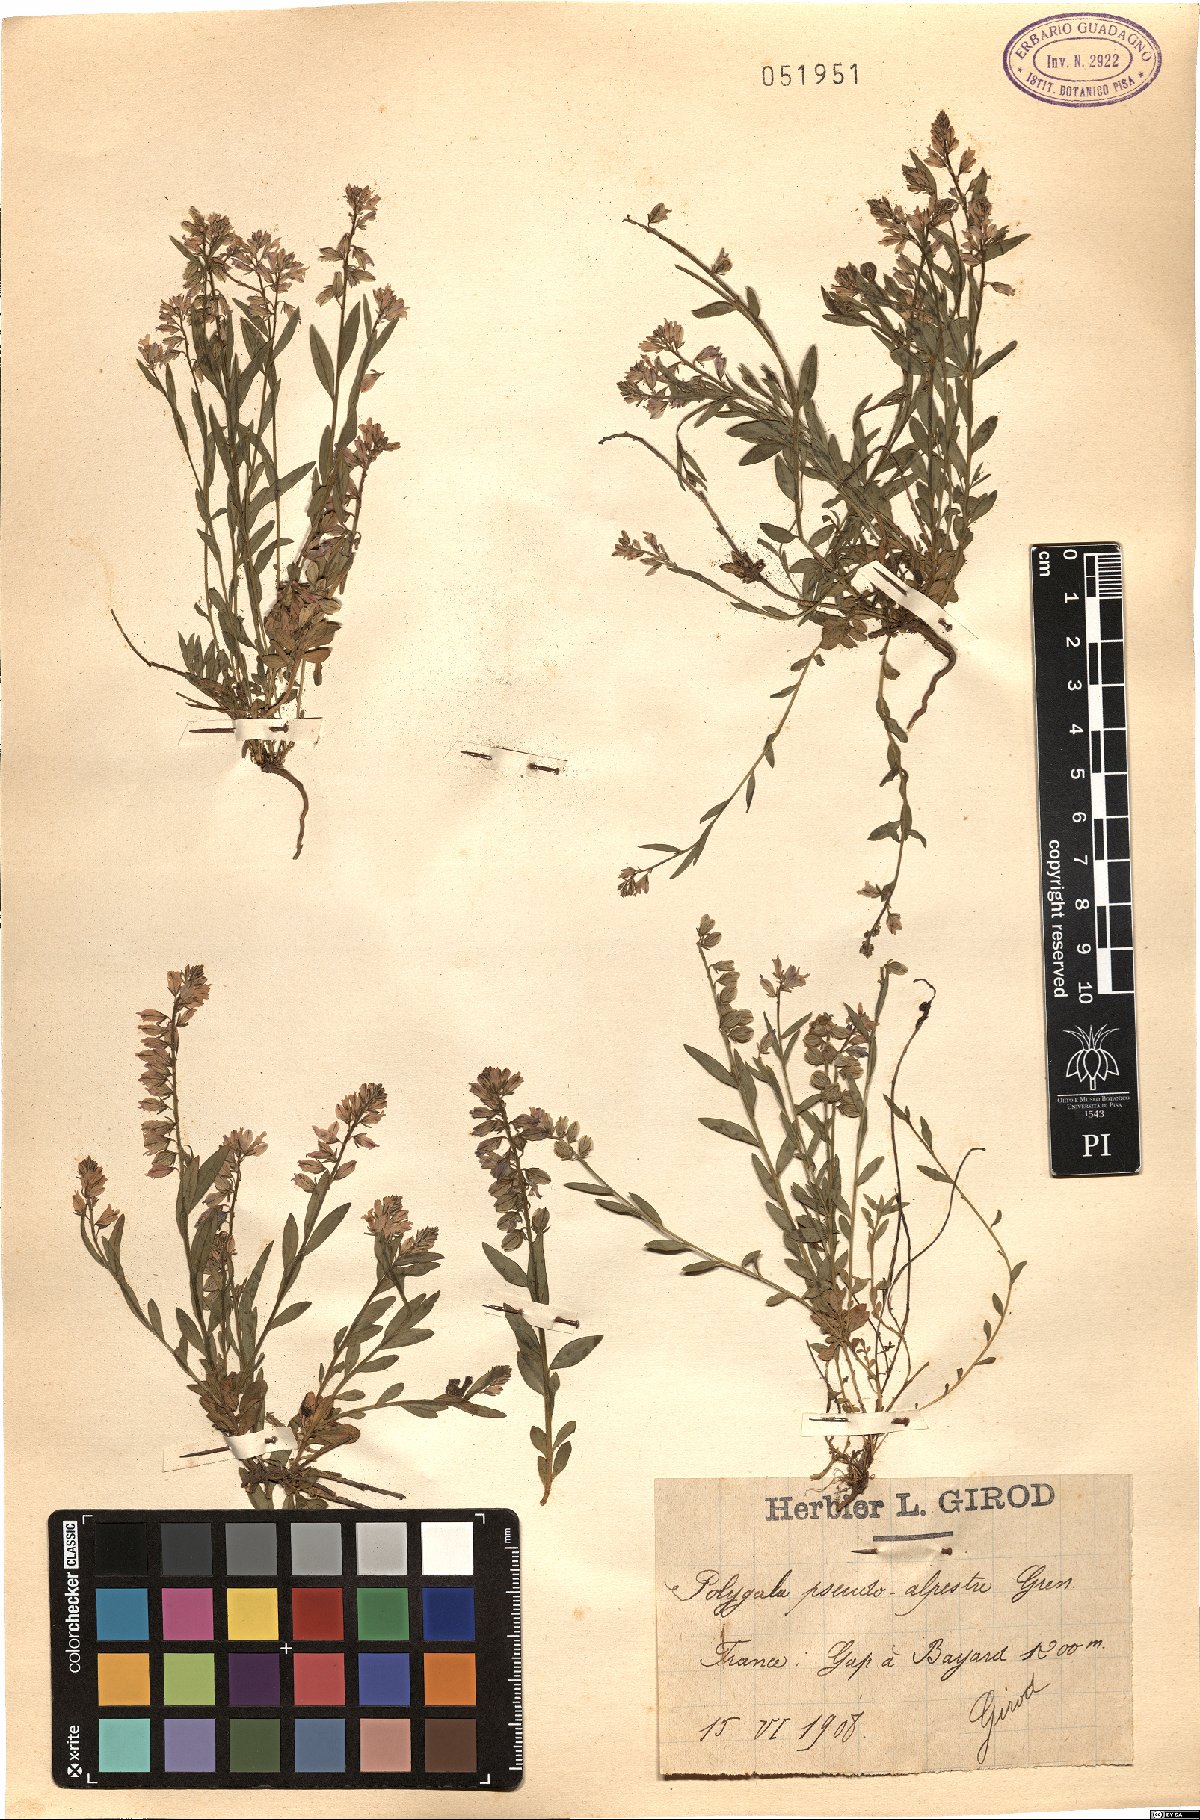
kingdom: Plantae
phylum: Tracheophyta
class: Magnoliopsida
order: Fabales
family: Polygalaceae
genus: Polygala
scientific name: Polygala pseudoalpestris
